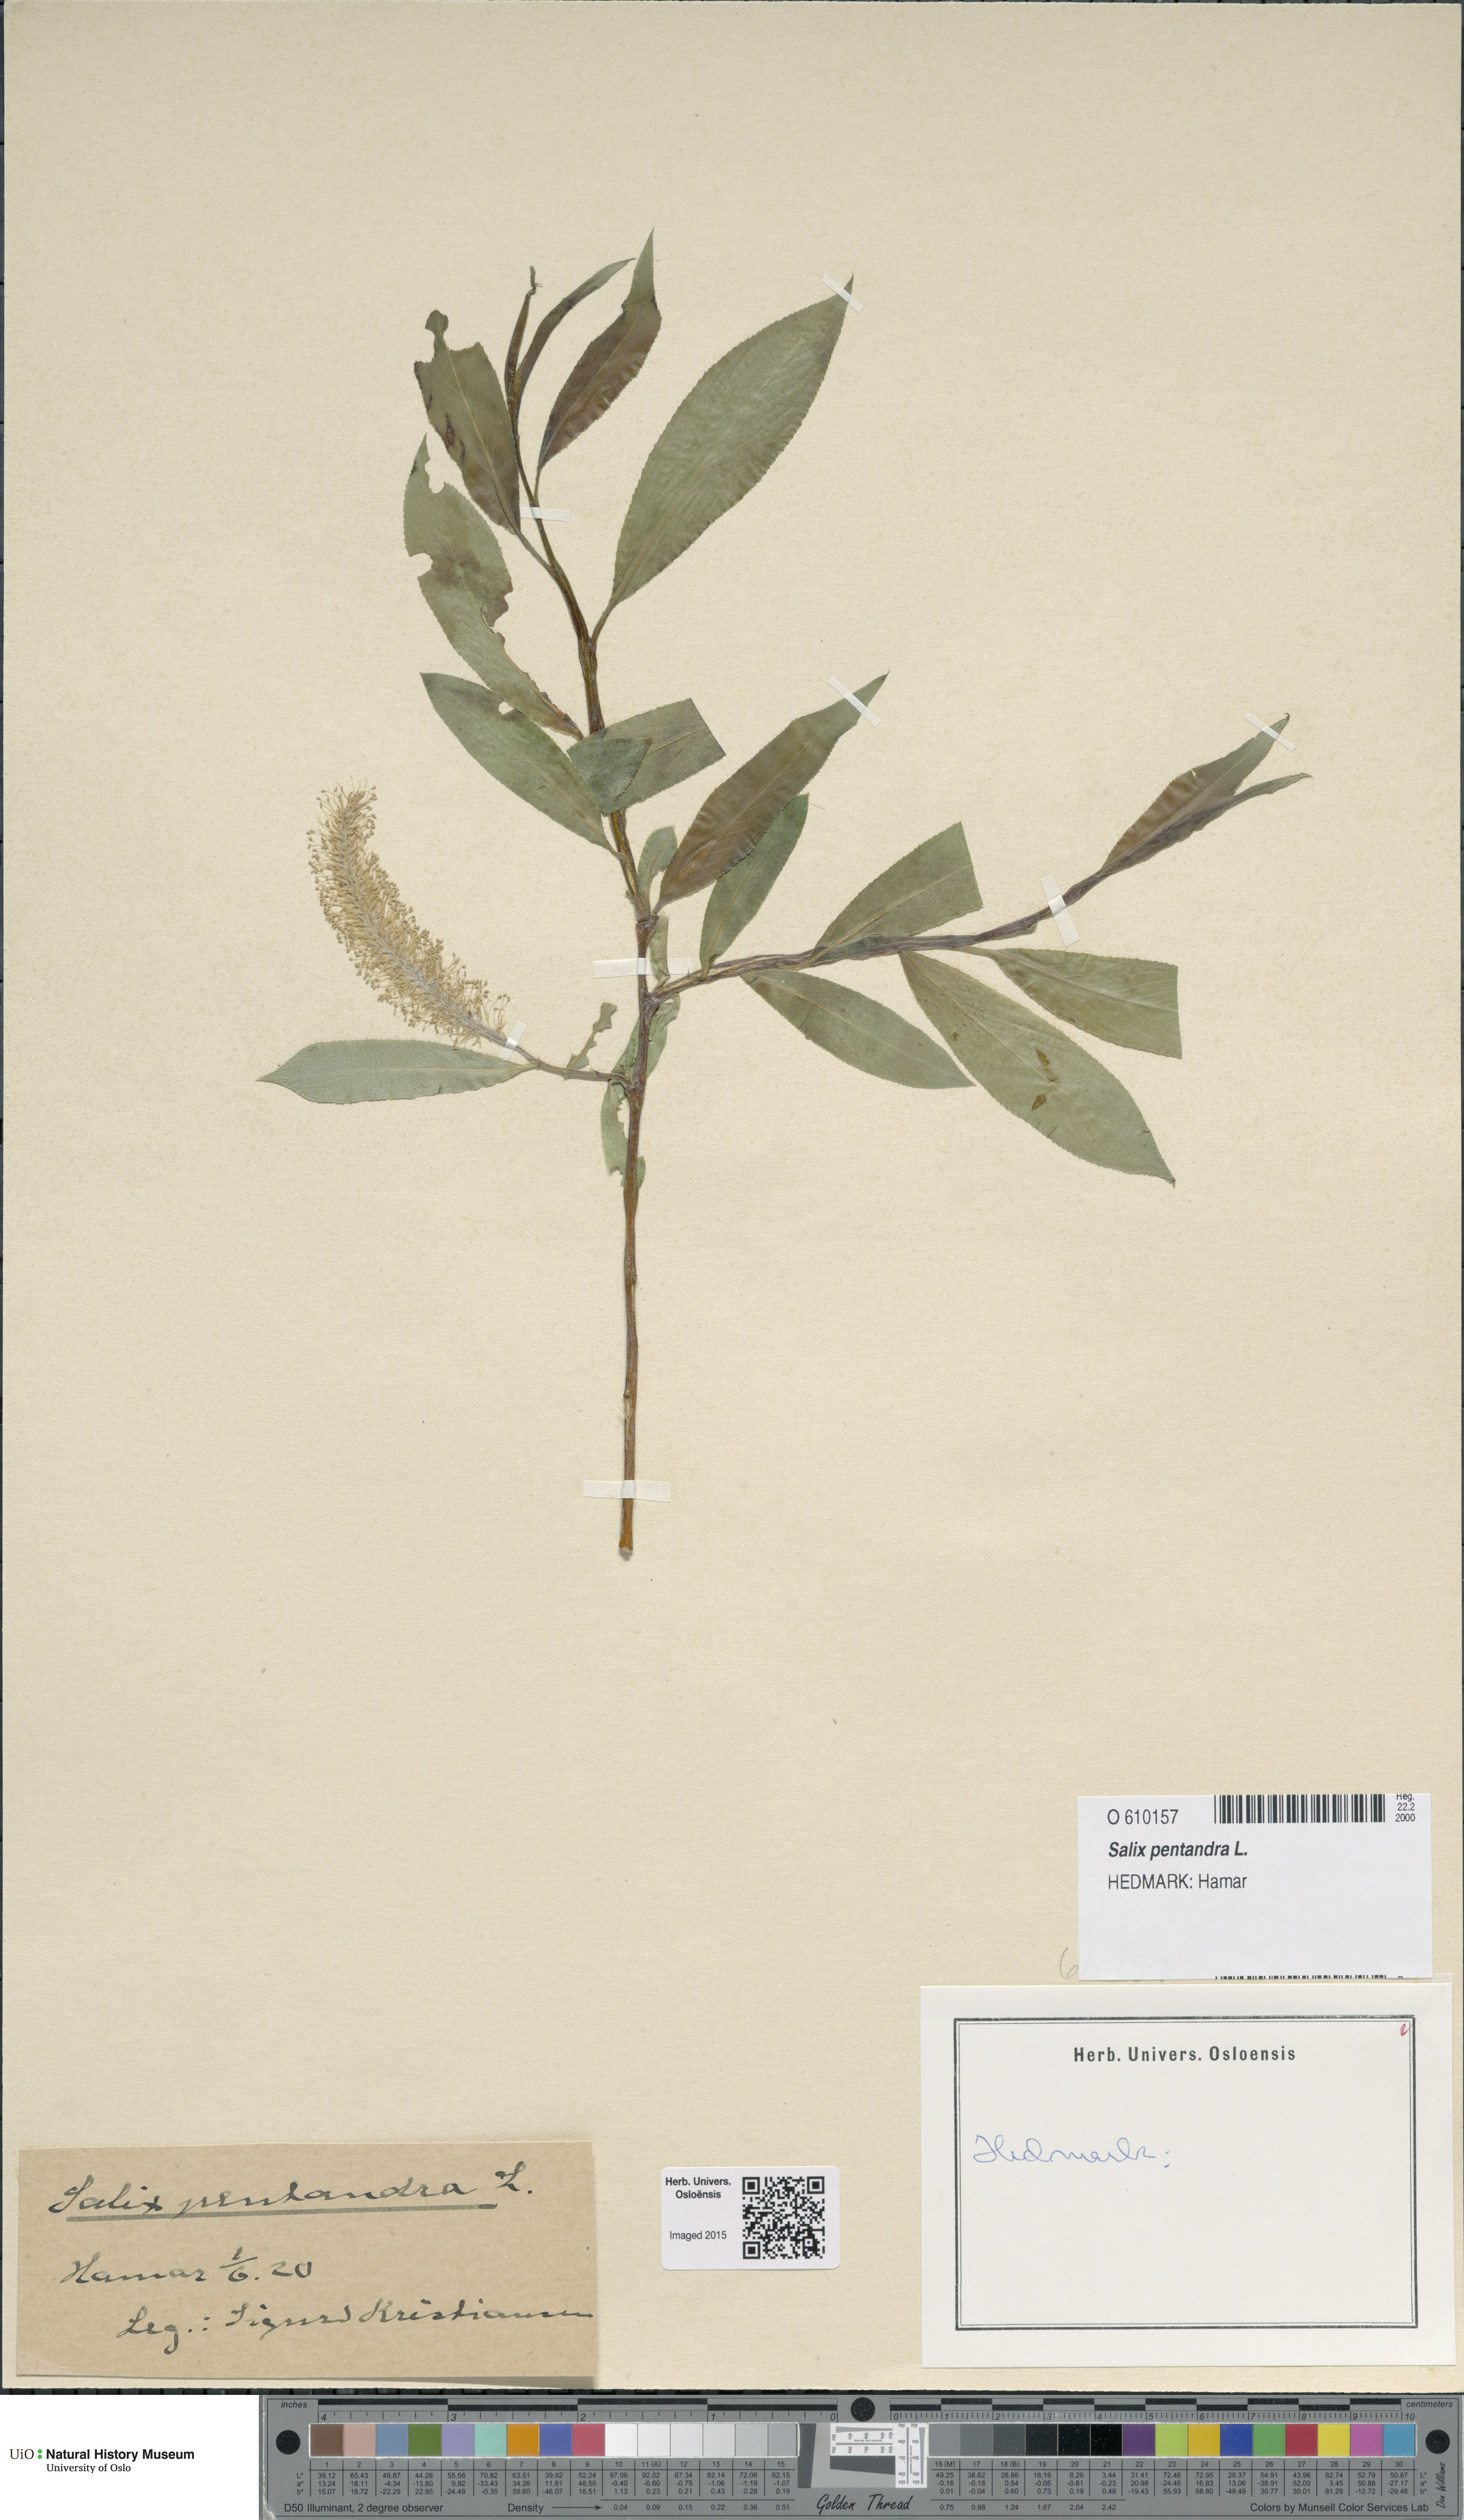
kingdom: Plantae
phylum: Tracheophyta
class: Magnoliopsida
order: Malpighiales
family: Salicaceae
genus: Salix
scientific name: Salix pentandra
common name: Bay willow
